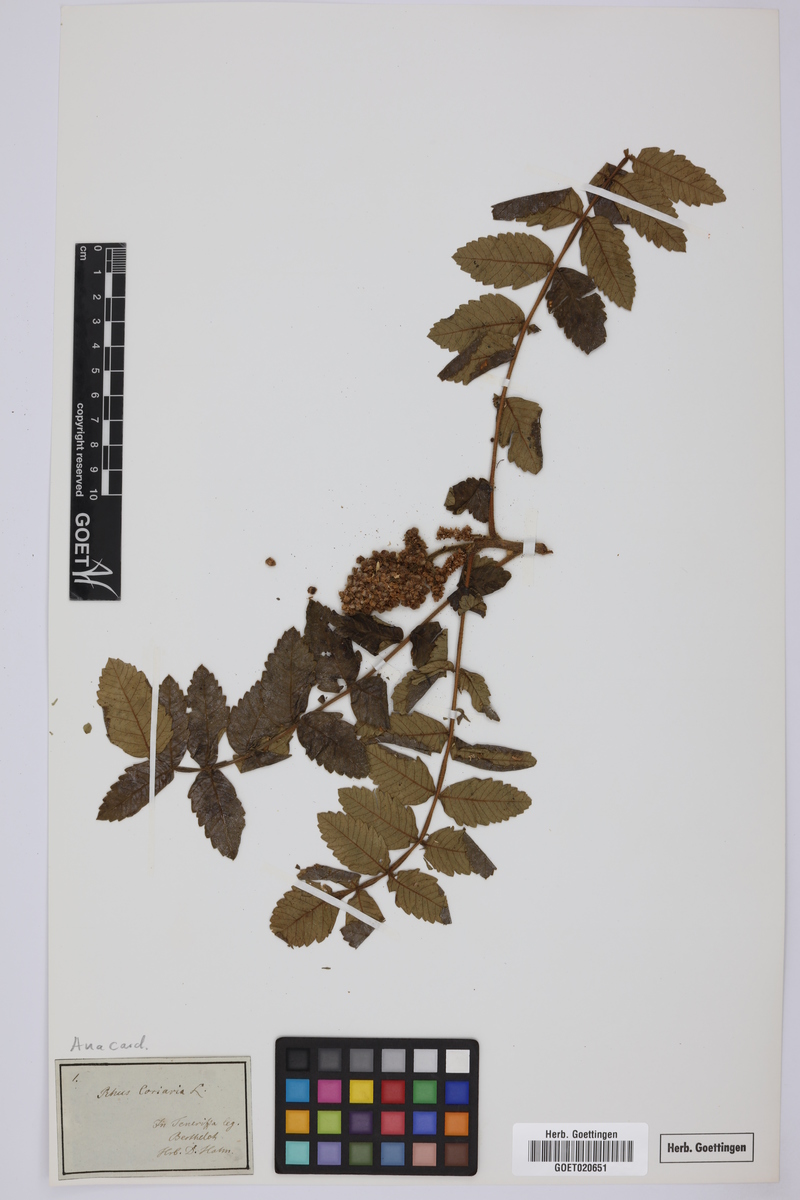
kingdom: Plantae
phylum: Tracheophyta
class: Magnoliopsida
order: Sapindales
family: Anacardiaceae
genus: Rhus
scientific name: Rhus coriaria
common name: Tanner's sumach
